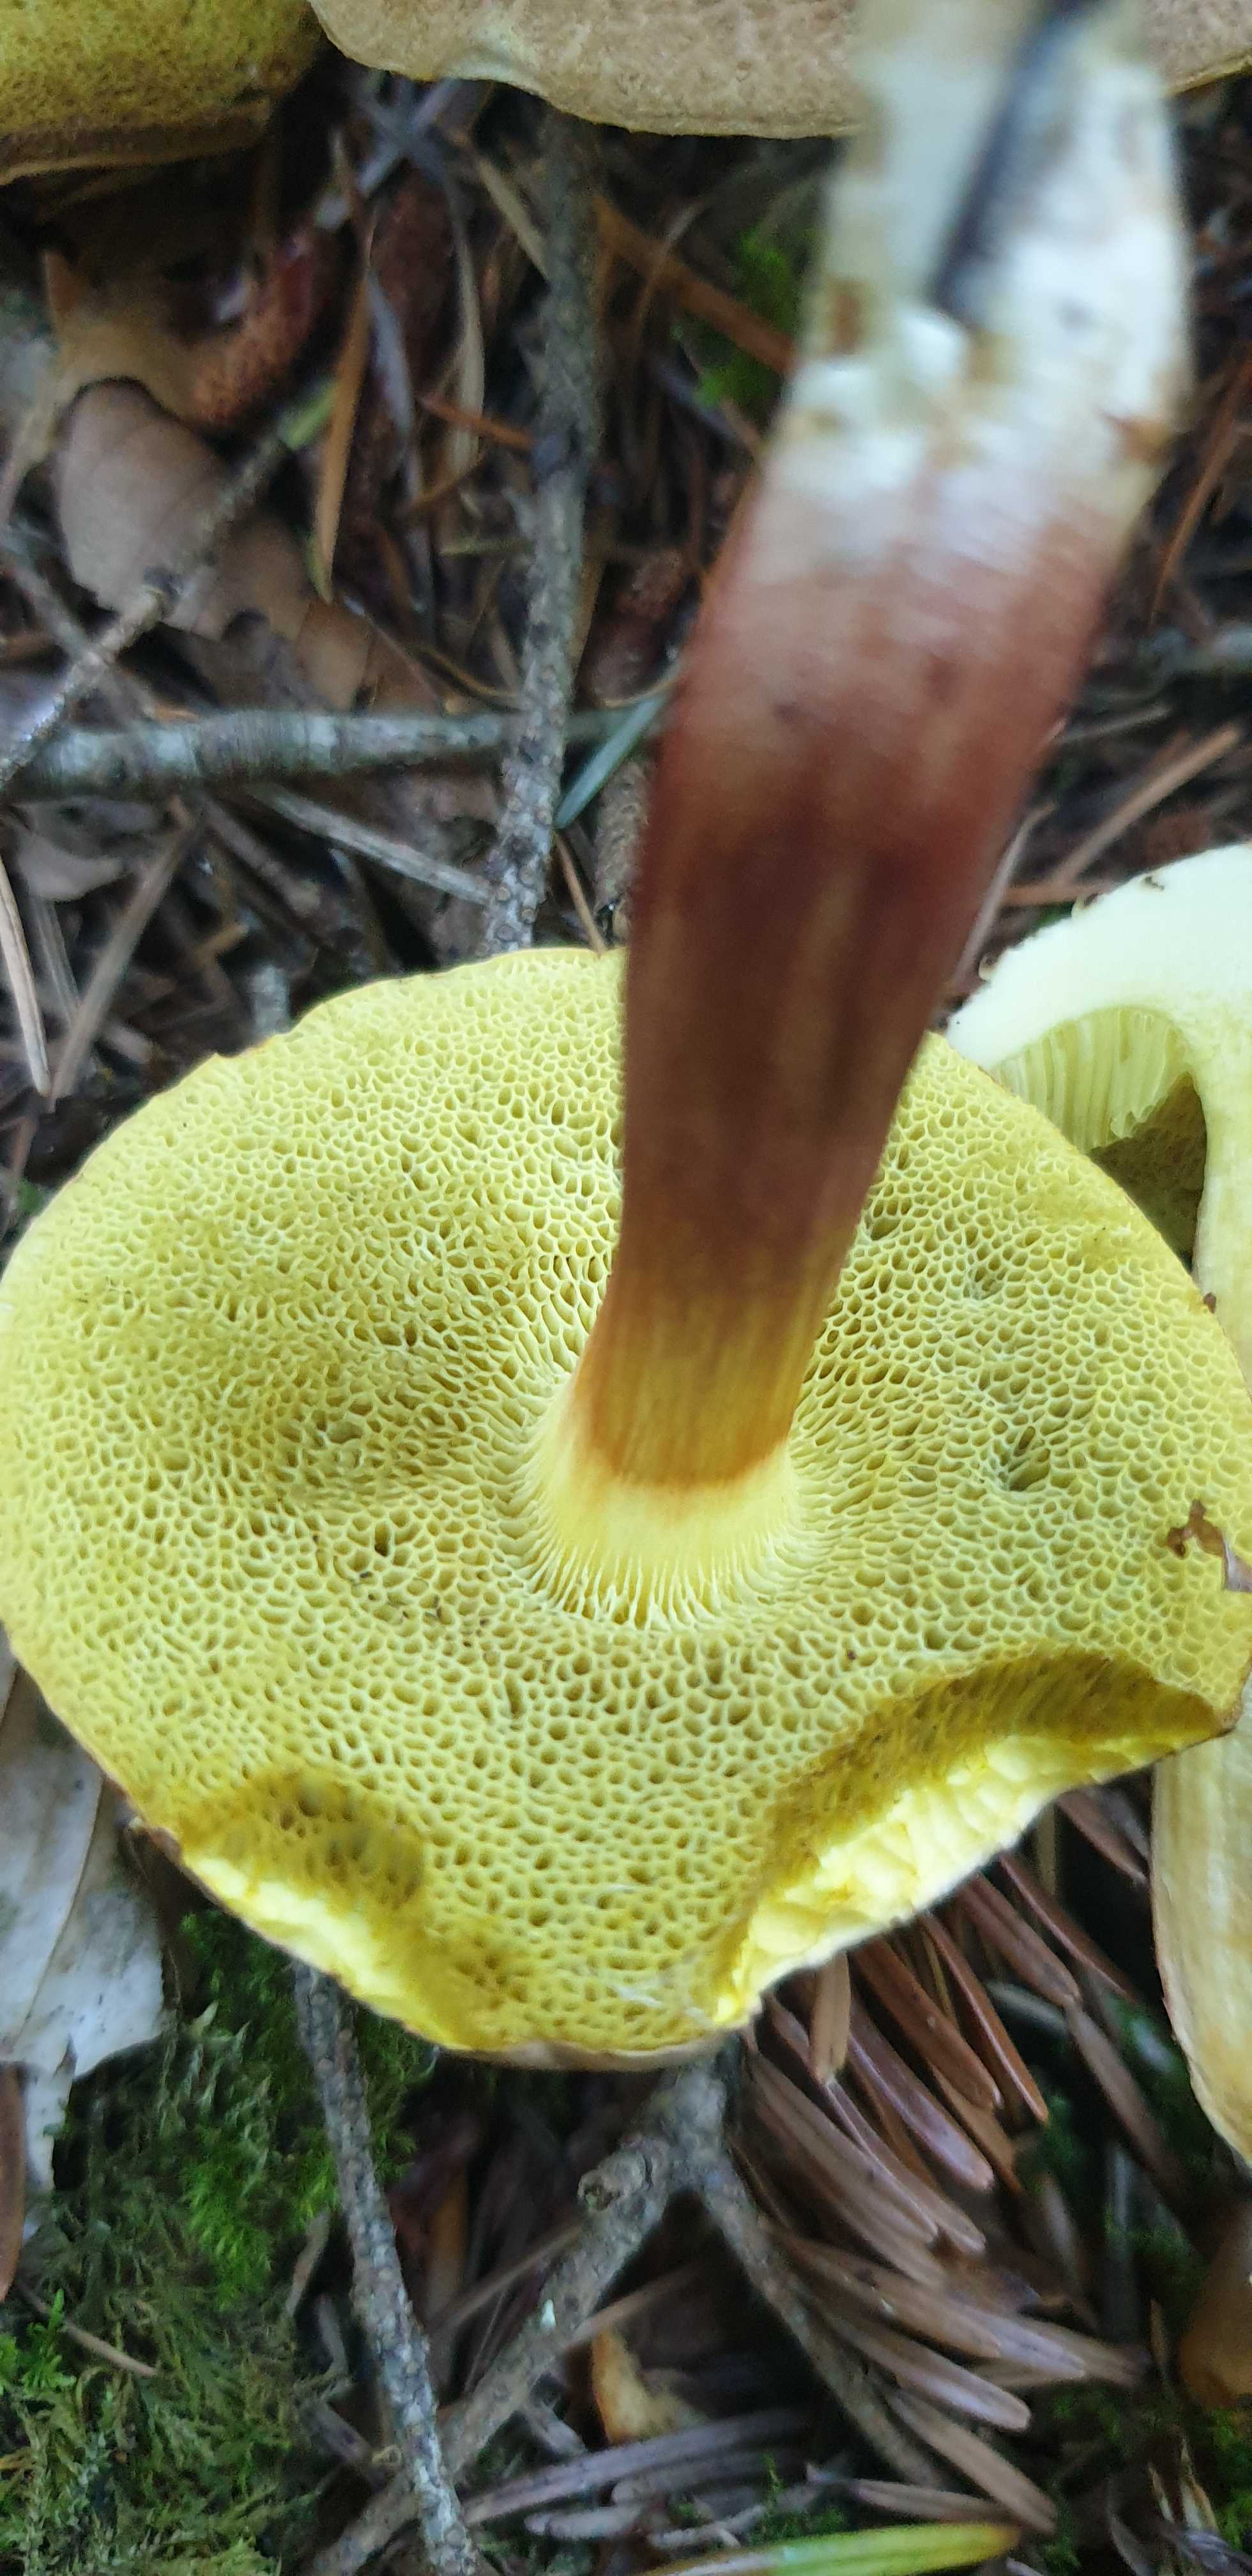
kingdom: Fungi
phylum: Basidiomycota
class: Agaricomycetes
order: Boletales
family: Boletaceae
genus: Xerocomellus
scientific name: Xerocomellus chrysenteron
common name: rødsprukken rørhat
